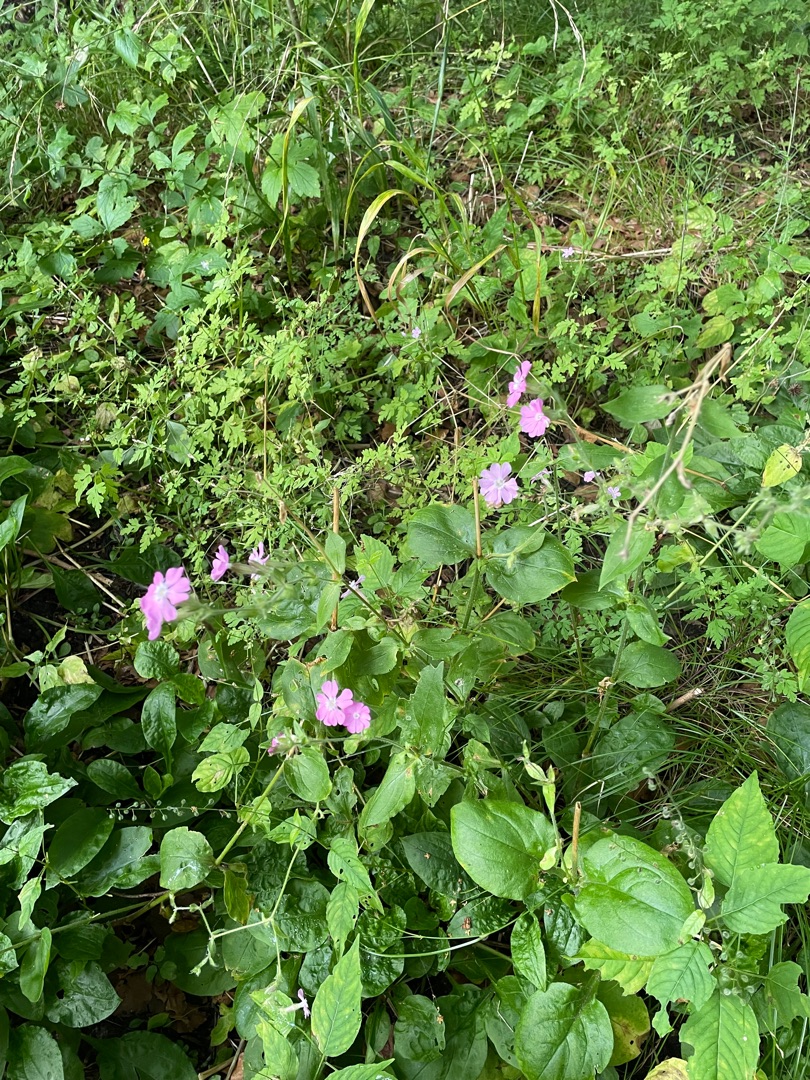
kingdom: Plantae
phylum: Tracheophyta
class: Magnoliopsida
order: Caryophyllales
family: Caryophyllaceae
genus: Silene
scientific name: Silene dioica
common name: Dagpragtstjerne
